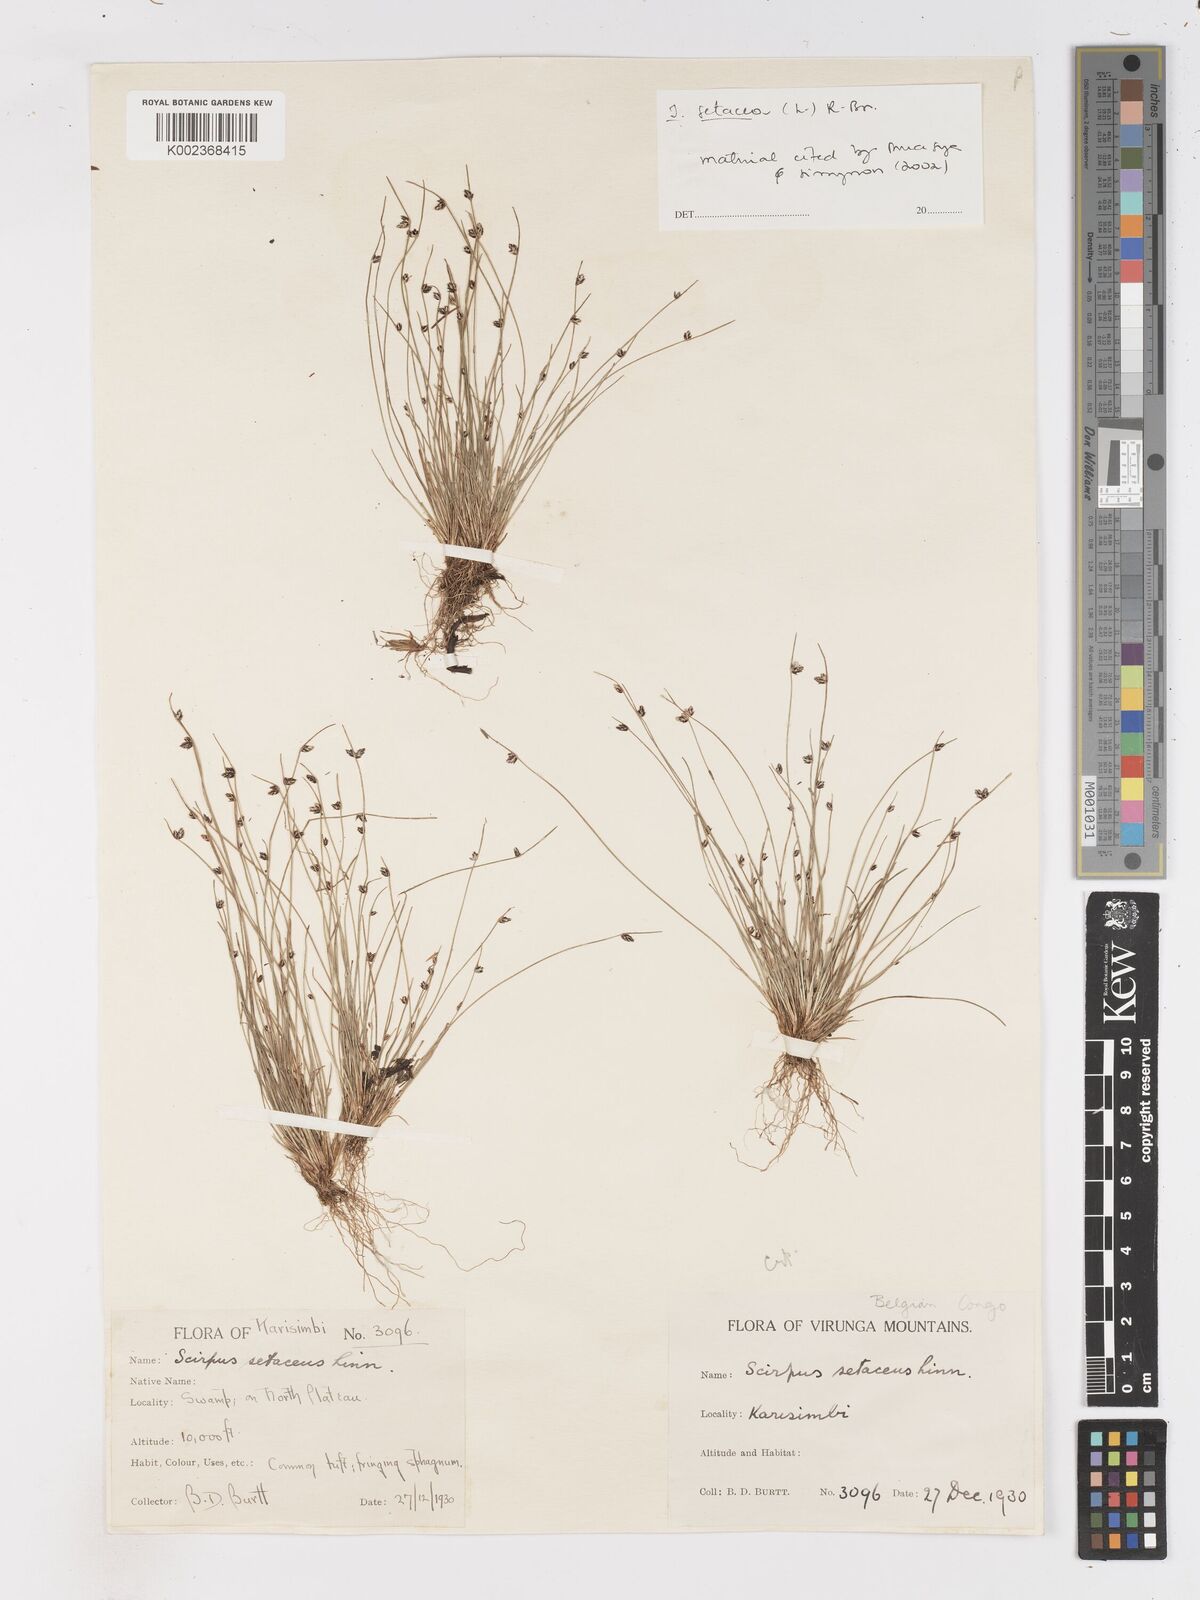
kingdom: Plantae
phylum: Tracheophyta
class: Liliopsida
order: Poales
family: Cyperaceae
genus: Isolepis
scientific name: Isolepis setacea
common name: Bristle club-rush
